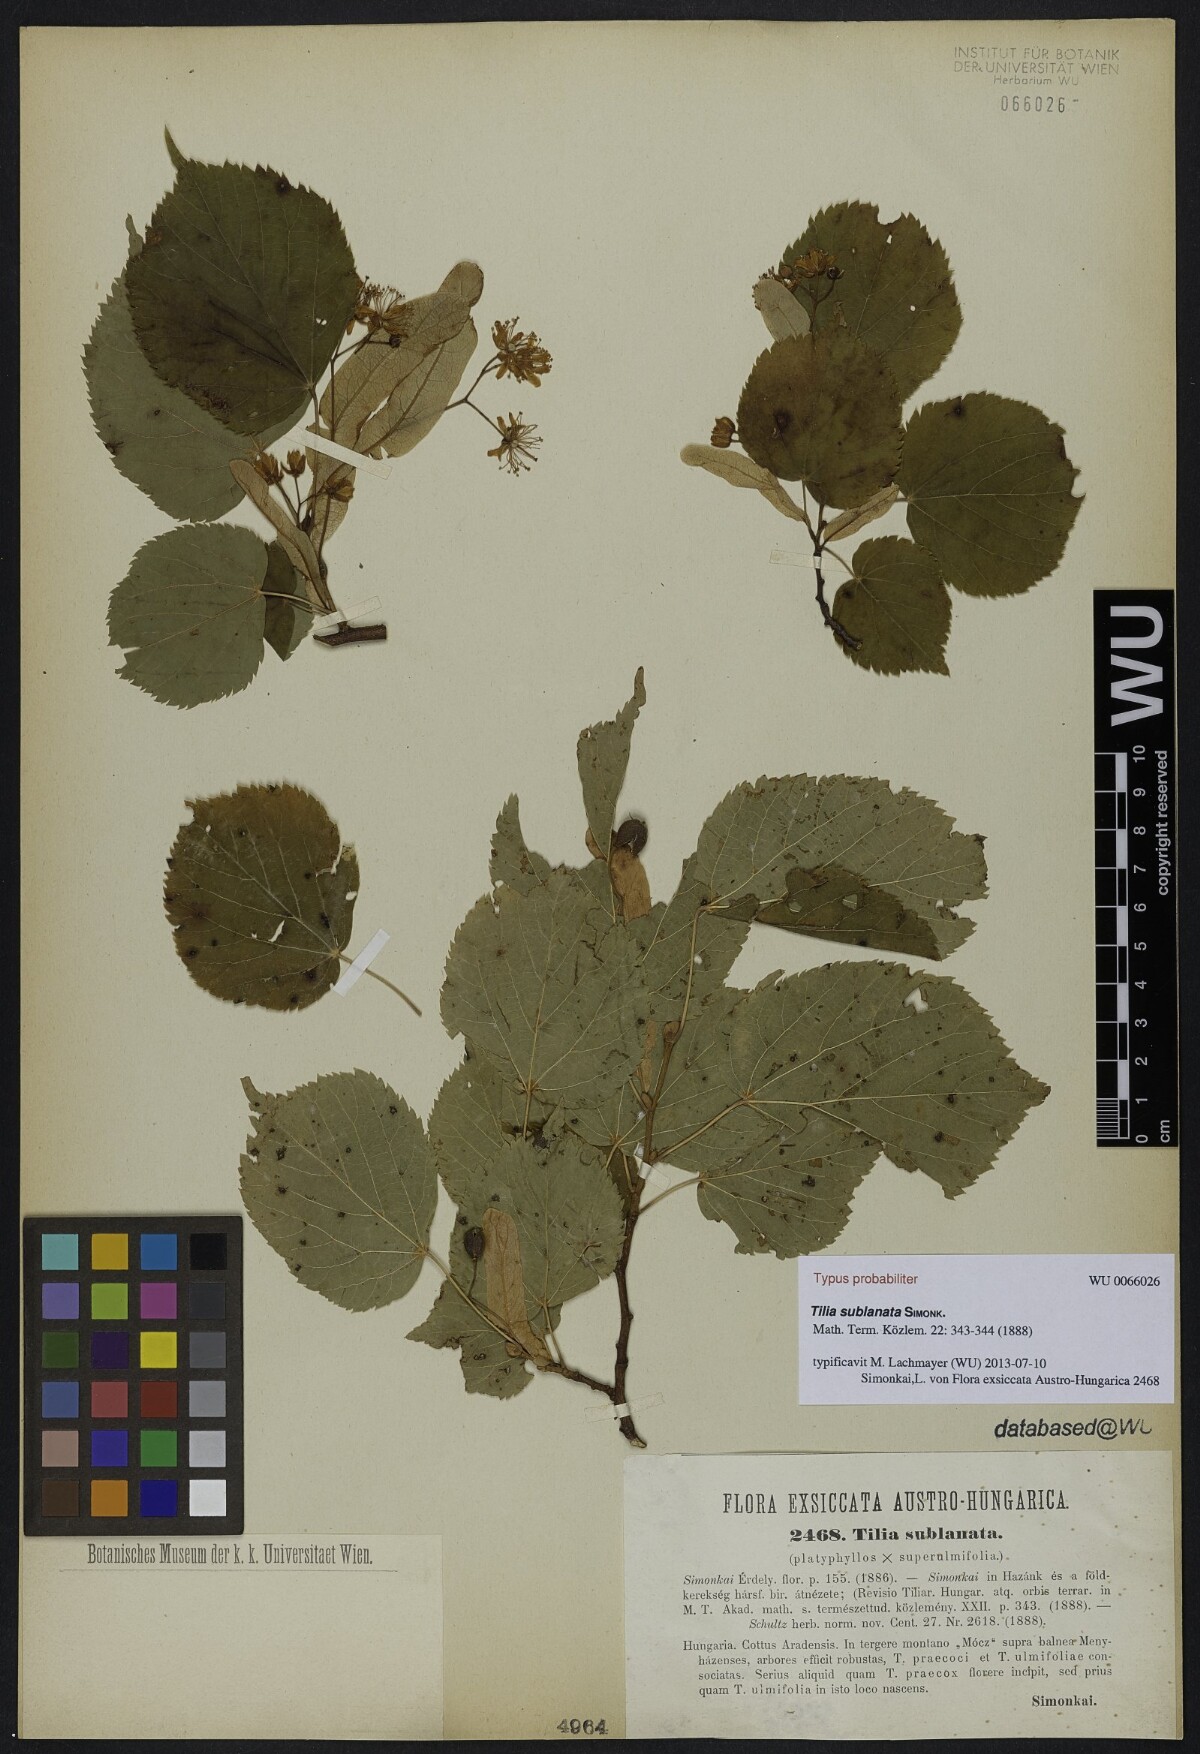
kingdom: Plantae
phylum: Tracheophyta
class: Magnoliopsida
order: Malvales
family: Malvaceae
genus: Tilia
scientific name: Tilia
